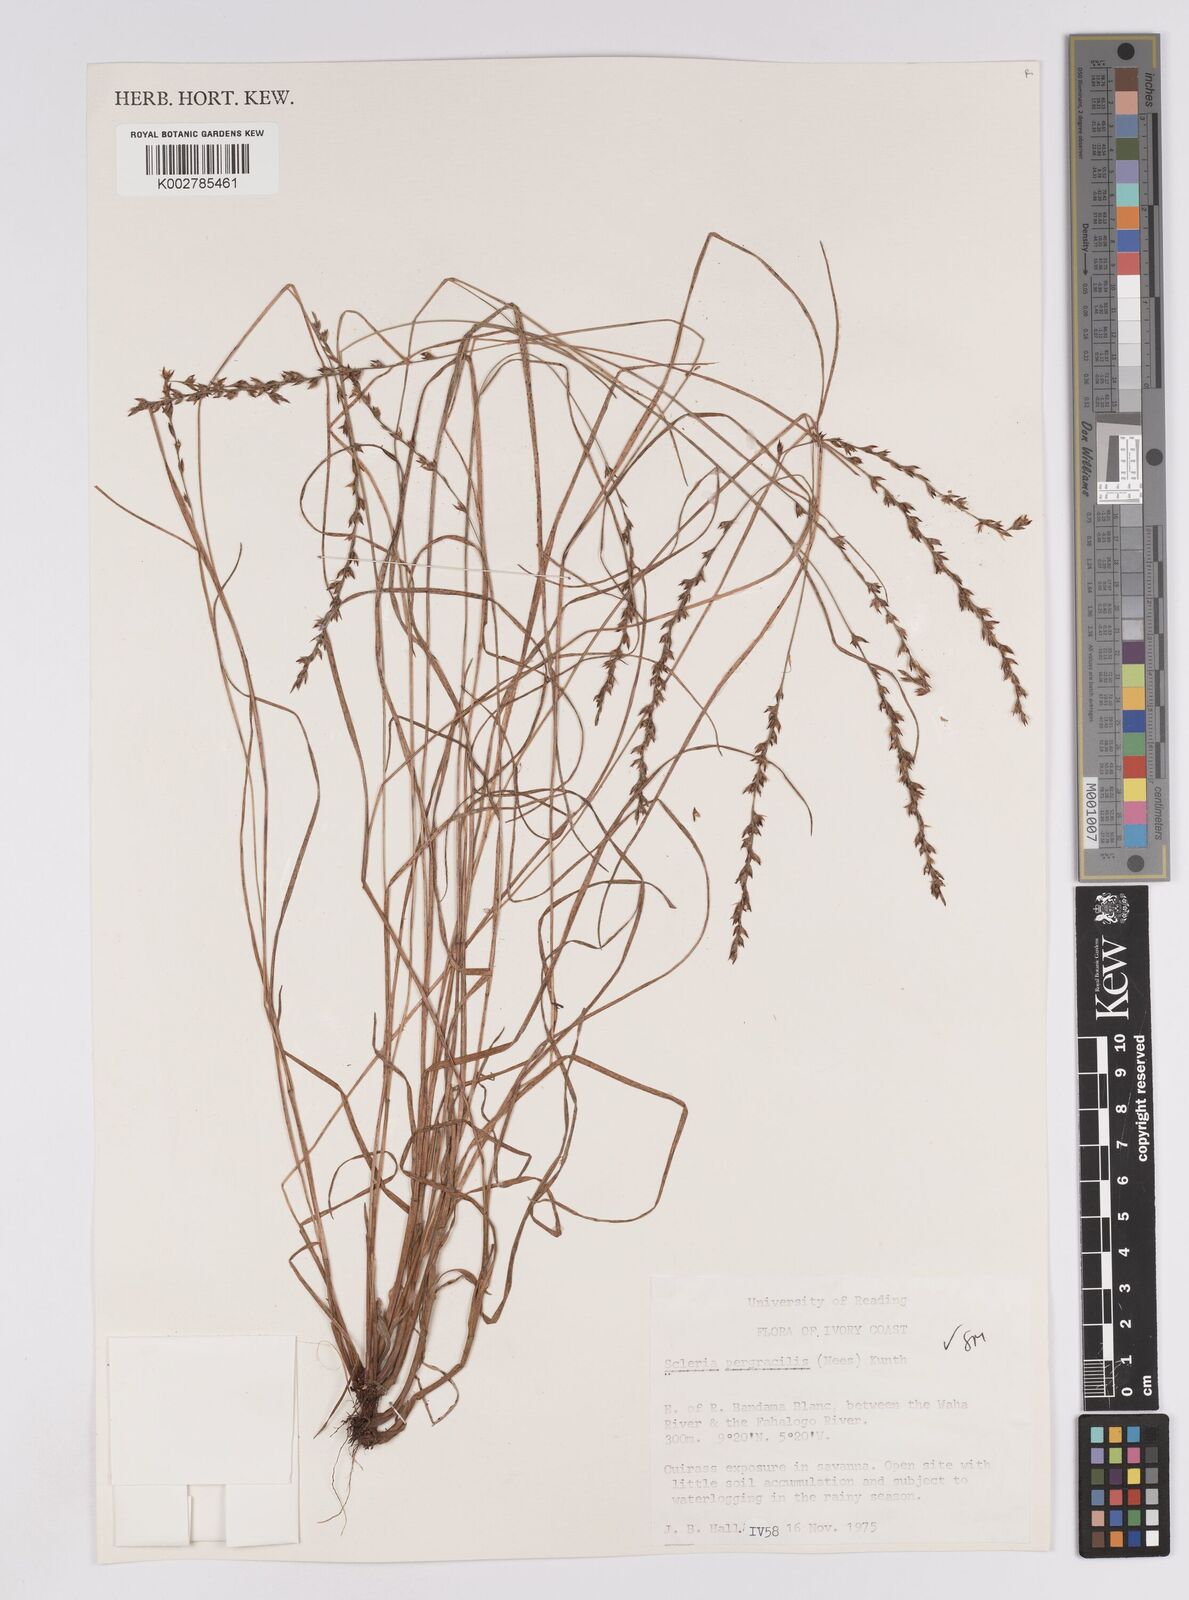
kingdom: Plantae
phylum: Tracheophyta
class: Liliopsida
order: Poales
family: Cyperaceae
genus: Scleria
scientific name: Scleria pergracilis
